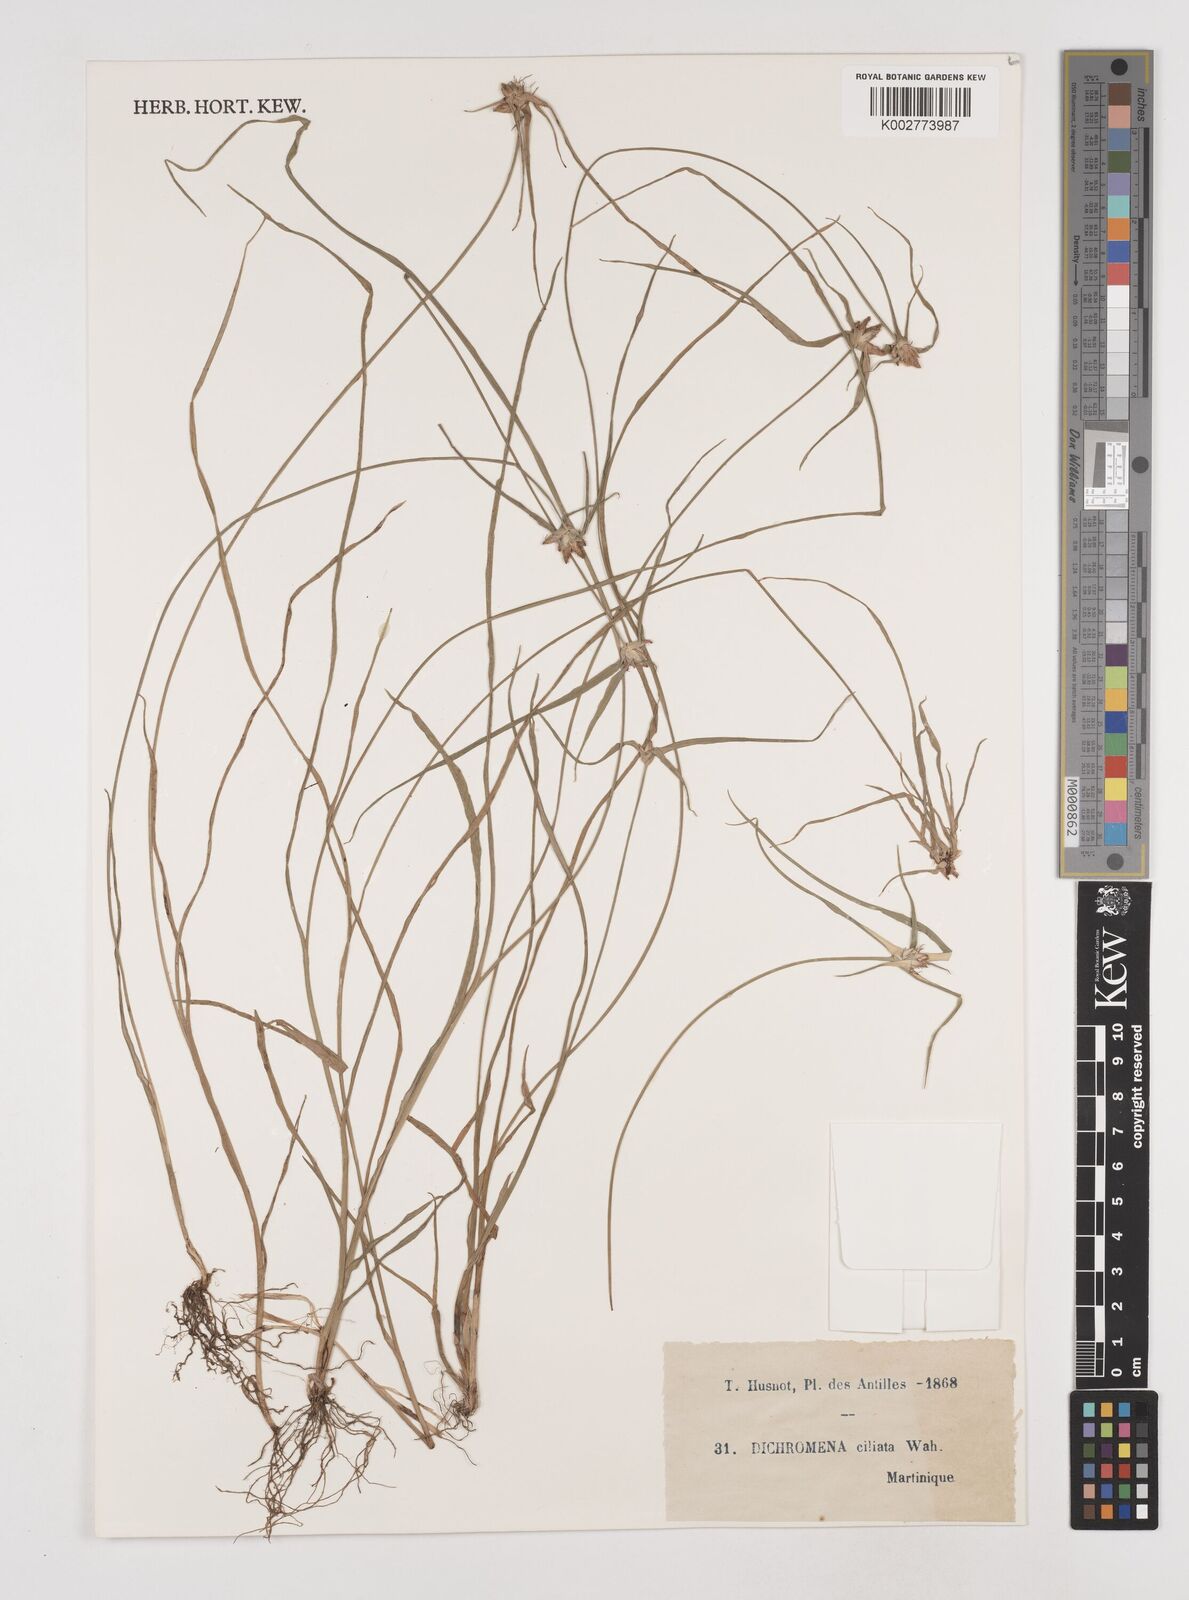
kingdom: Plantae
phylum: Tracheophyta
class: Liliopsida
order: Poales
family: Cyperaceae
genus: Rhynchospora
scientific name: Rhynchospora pura
